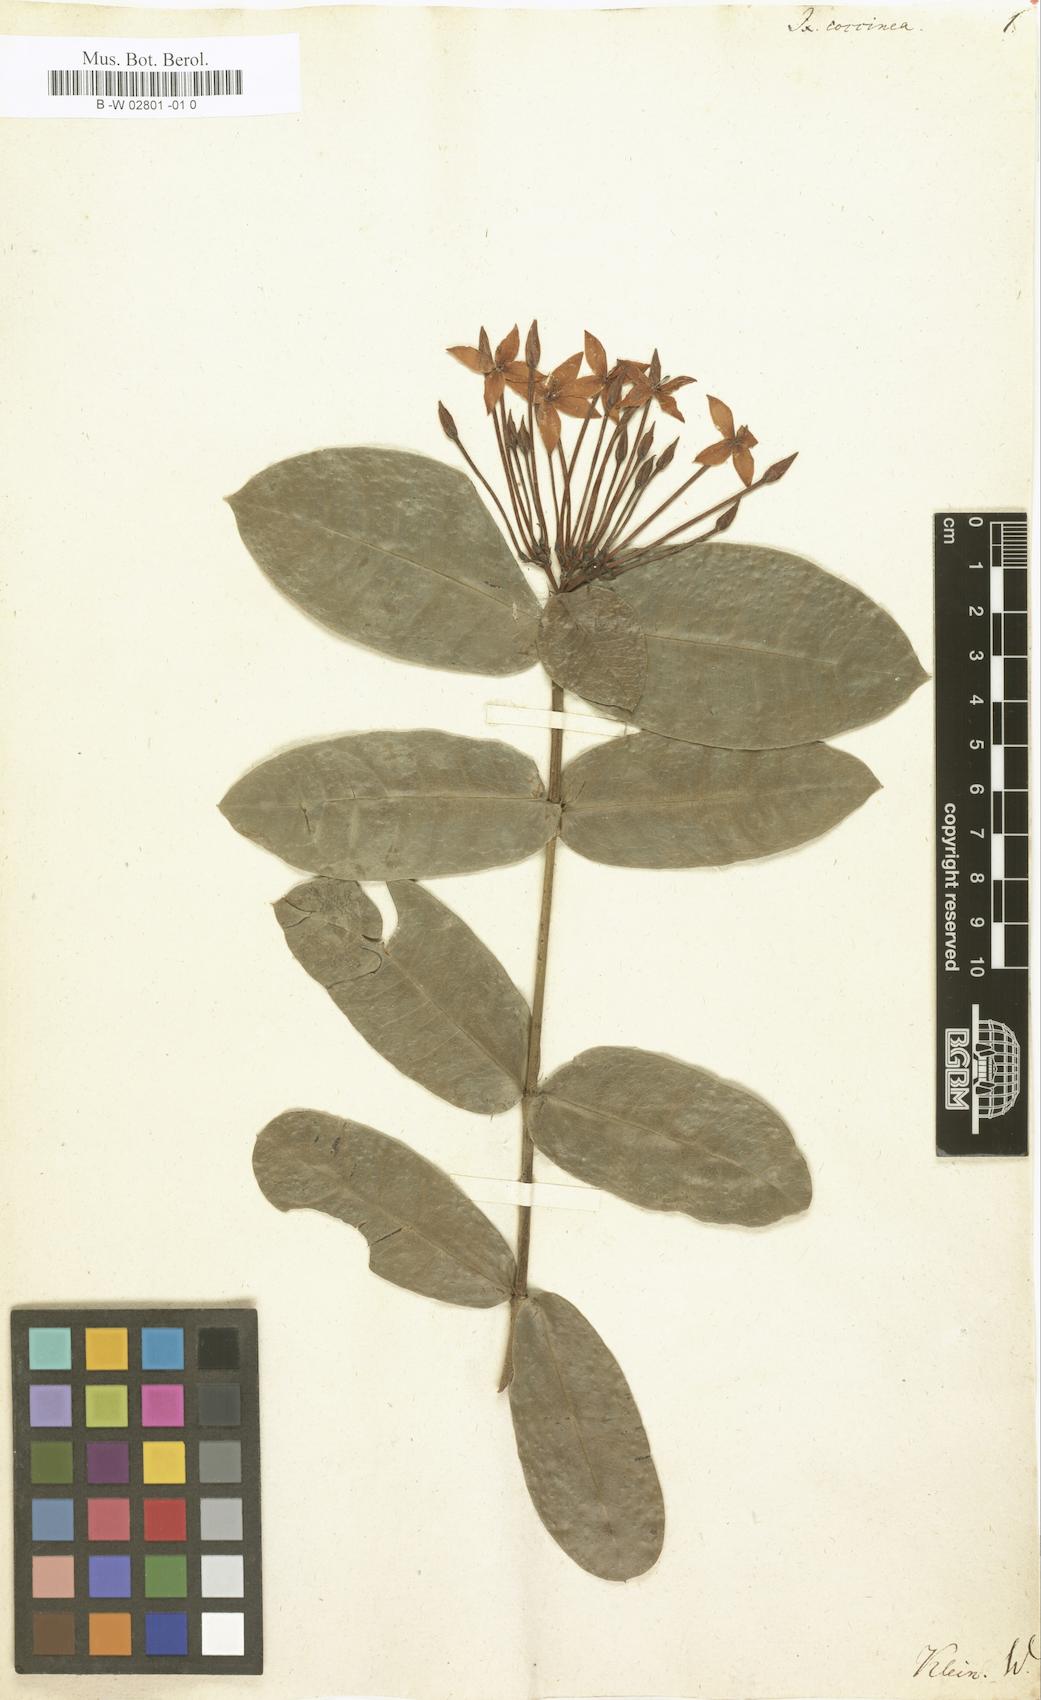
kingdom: Plantae
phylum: Tracheophyta
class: Magnoliopsida
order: Gentianales
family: Rubiaceae
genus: Ixora
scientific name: Ixora coccinea
